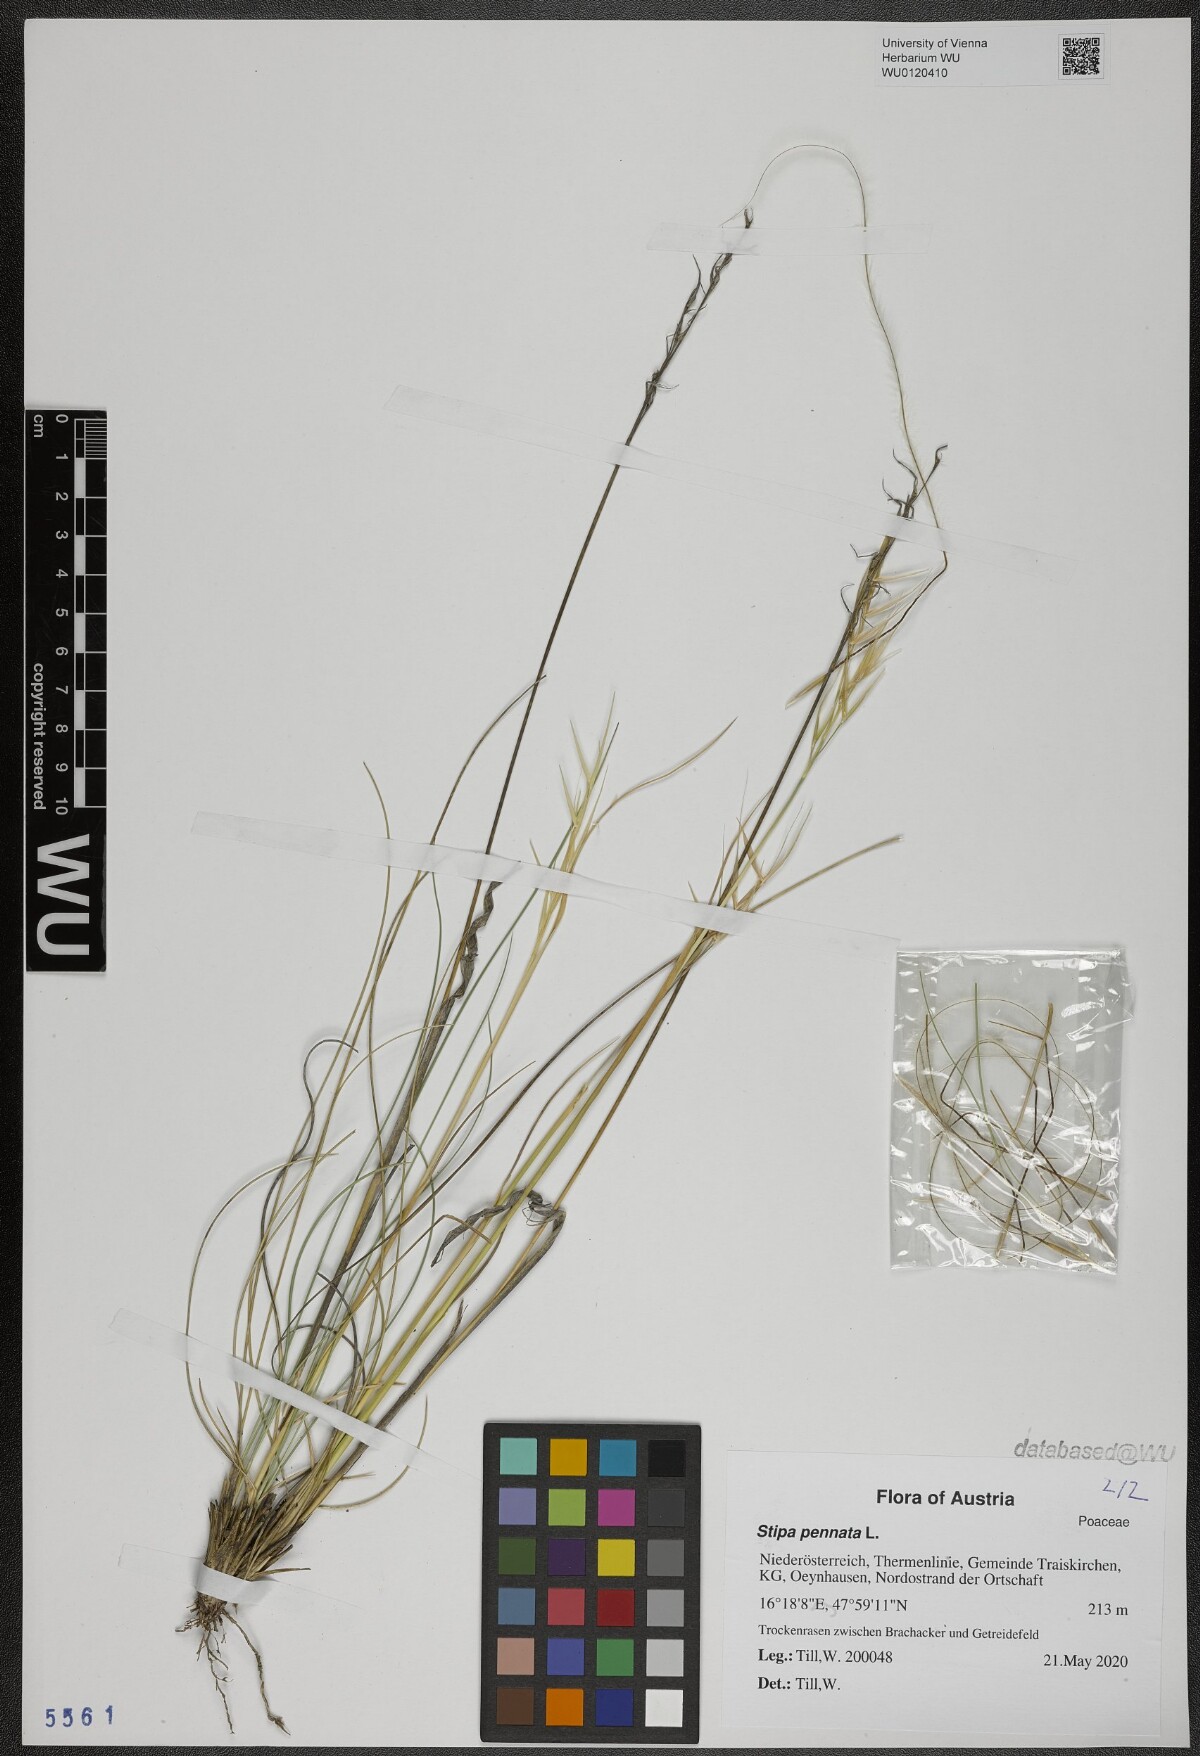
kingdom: Plantae
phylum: Tracheophyta
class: Liliopsida
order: Poales
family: Poaceae
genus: Stipa
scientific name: Stipa pennata
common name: European feather grass
